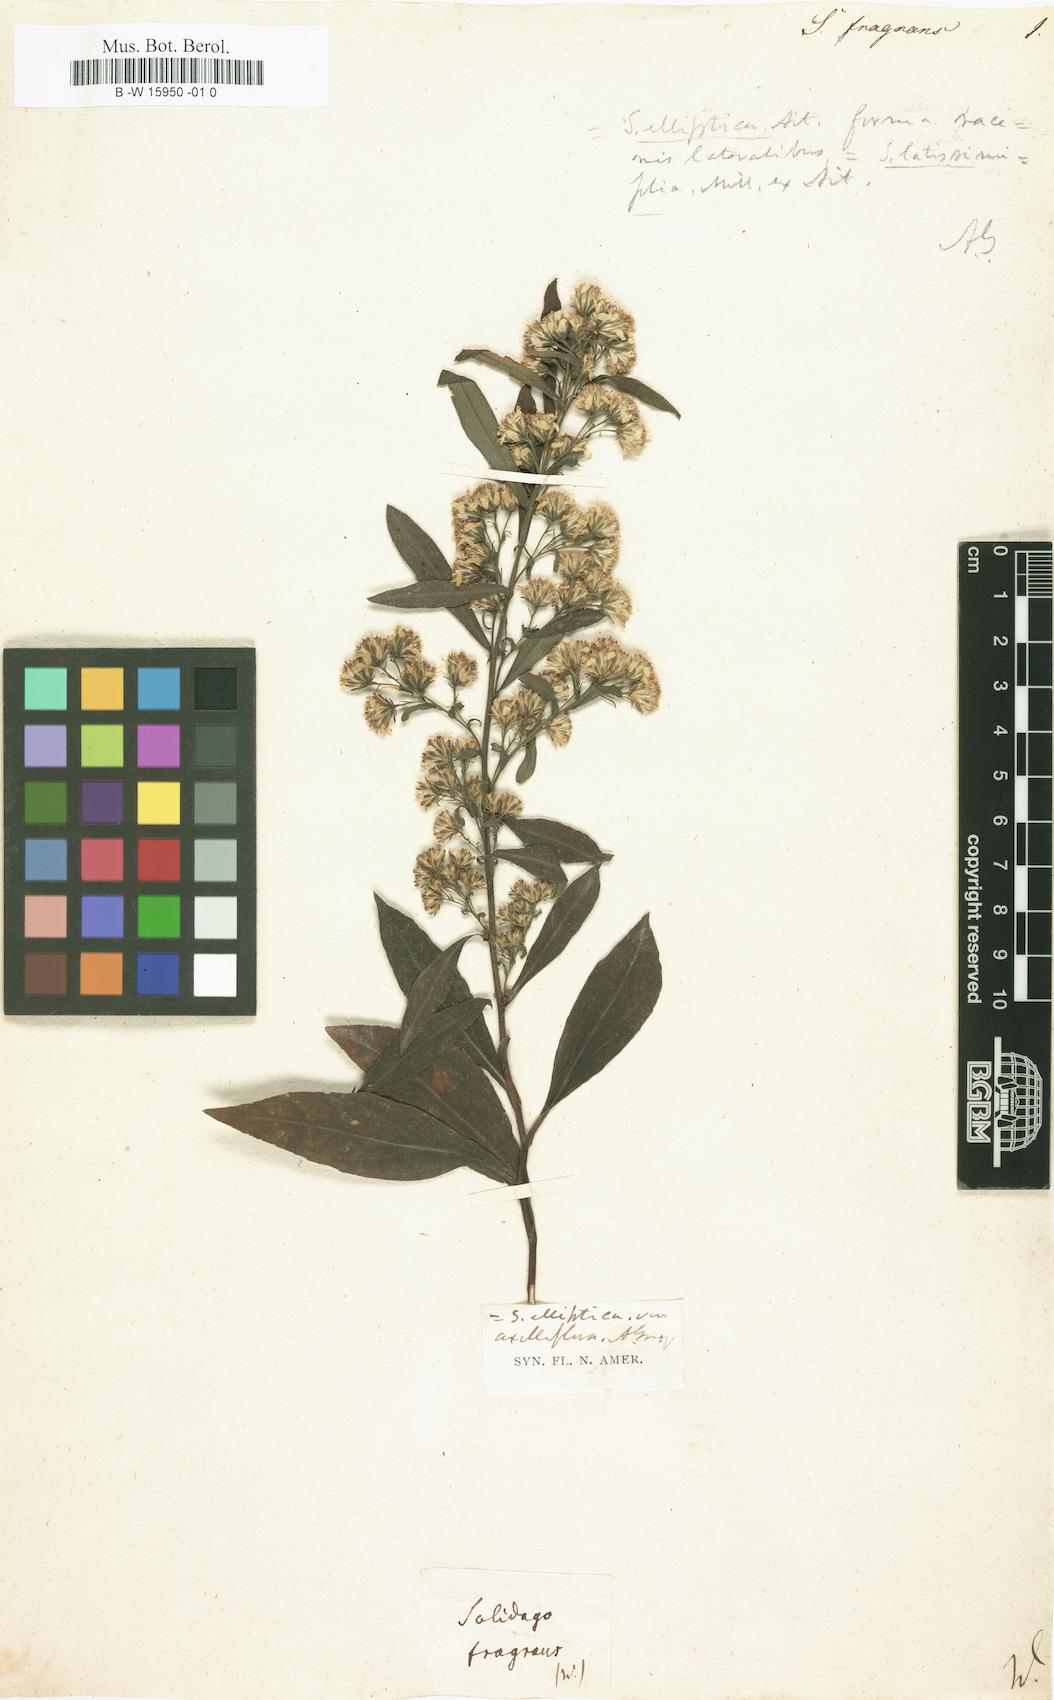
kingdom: Plantae
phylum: Tracheophyta
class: Magnoliopsida
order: Asterales
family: Asteraceae
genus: Solidago
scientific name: Solidago
